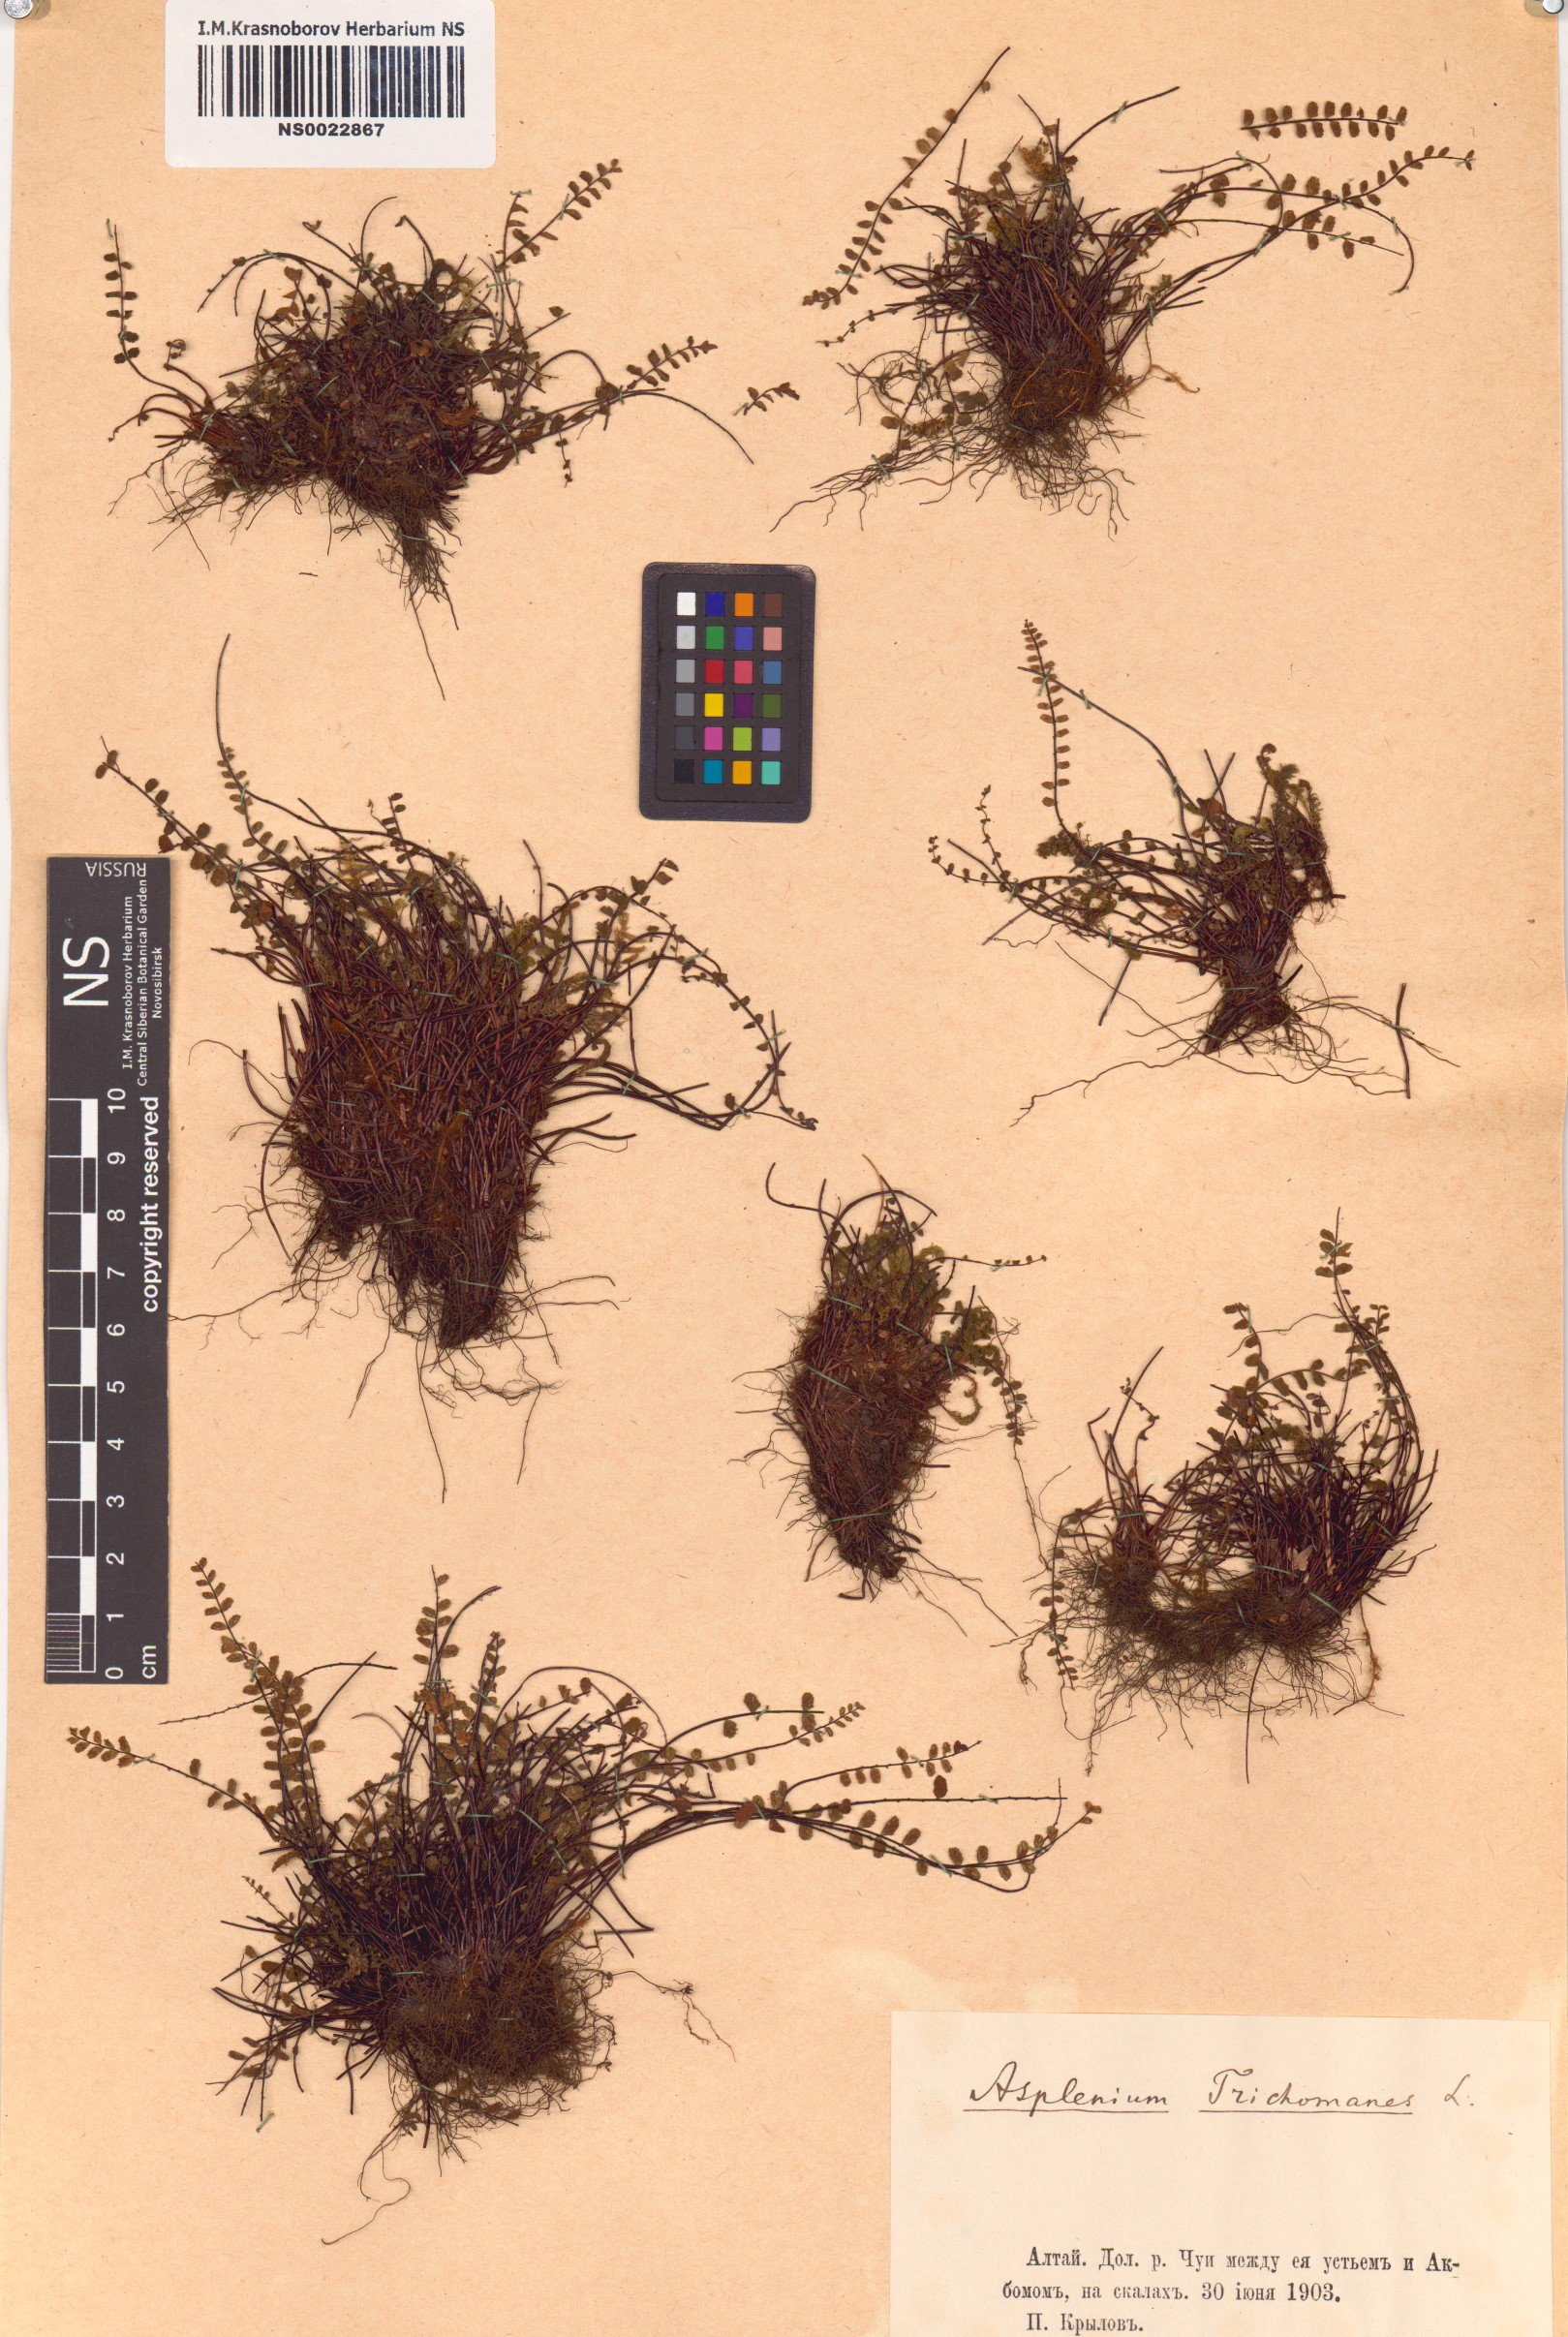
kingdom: Plantae
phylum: Tracheophyta
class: Polypodiopsida
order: Polypodiales
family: Aspleniaceae
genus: Asplenium
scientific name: Asplenium trichomanes
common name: Maidenhair spleenwort
